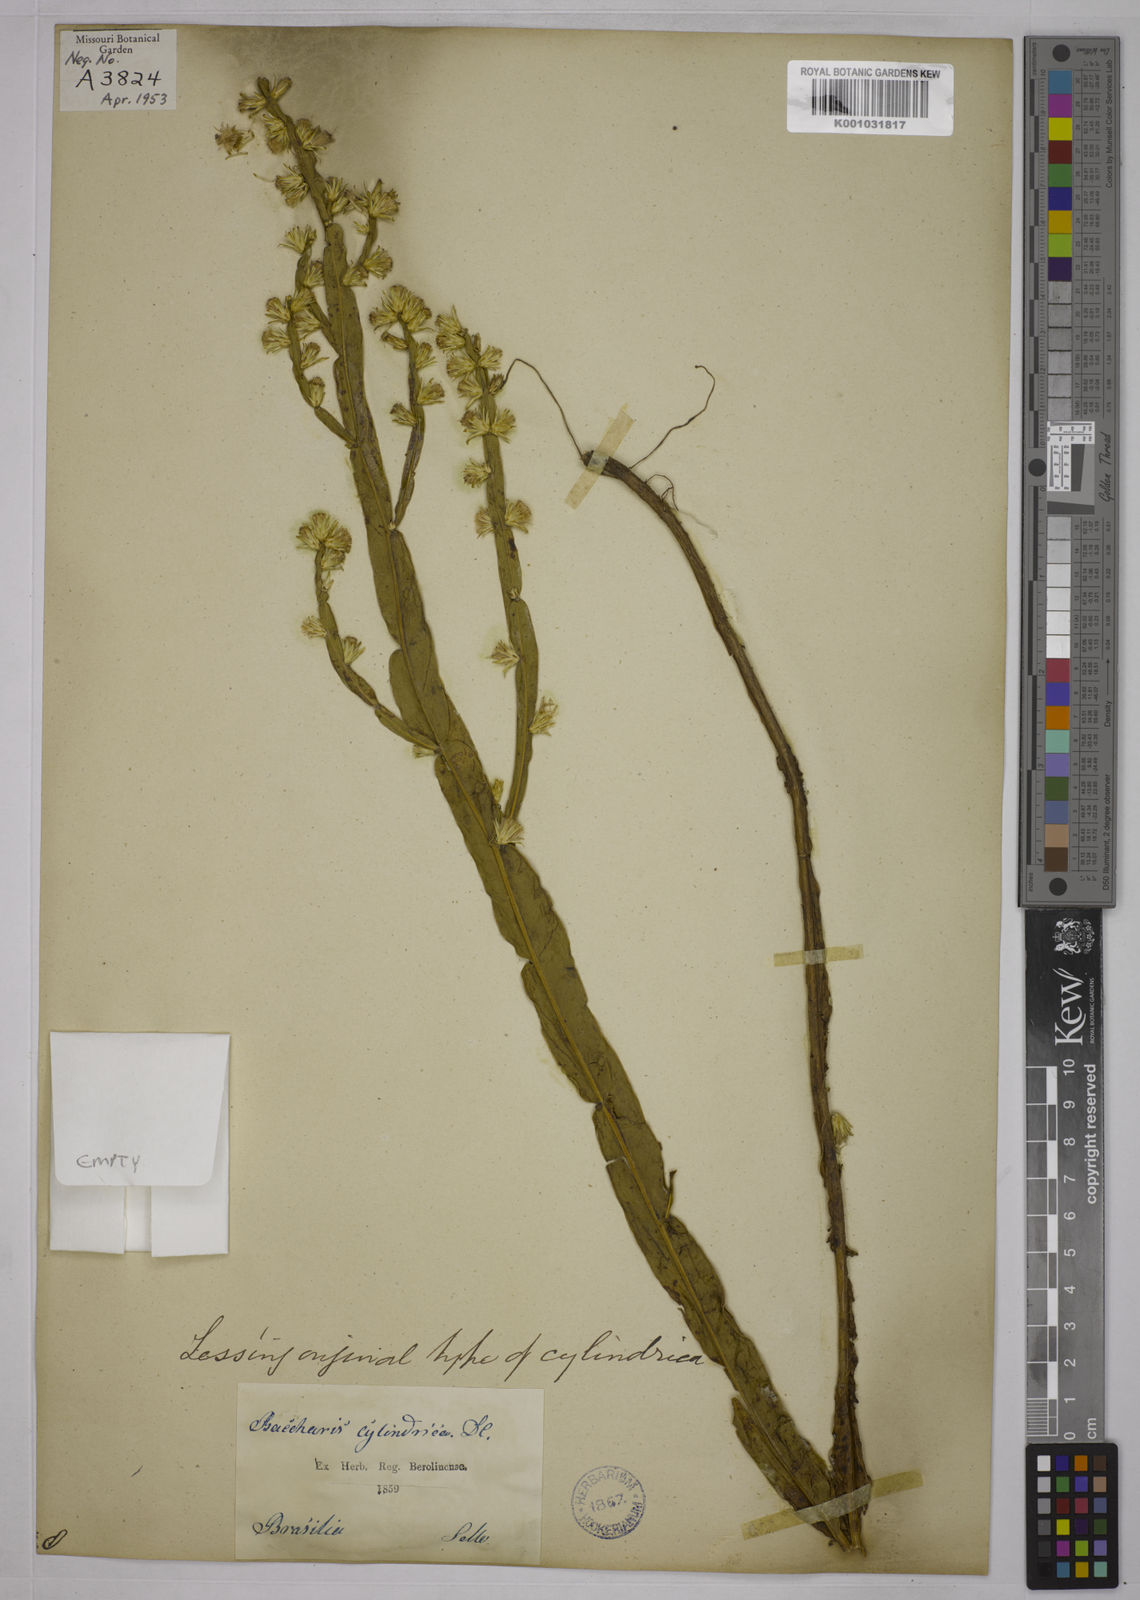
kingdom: Plantae
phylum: Tracheophyta
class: Magnoliopsida
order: Asterales
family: Asteraceae
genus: Baccharis
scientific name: Baccharis genistelloides
